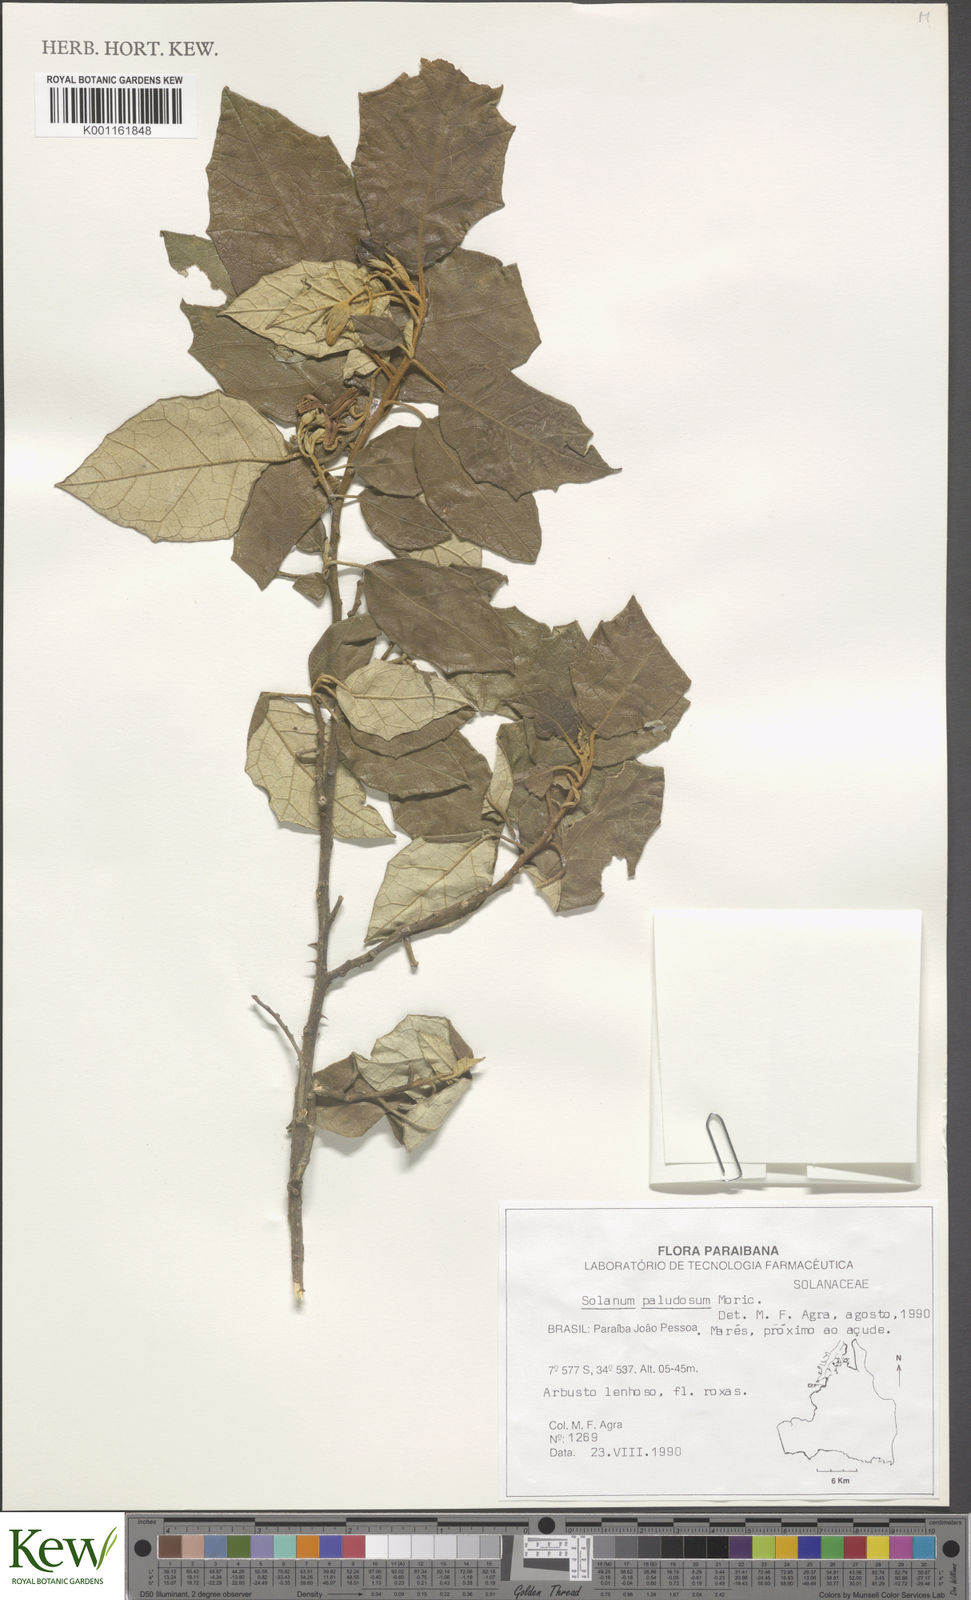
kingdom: Plantae
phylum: Tracheophyta
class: Magnoliopsida
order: Solanales
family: Solanaceae
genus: Solanum
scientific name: Solanum paludosum
